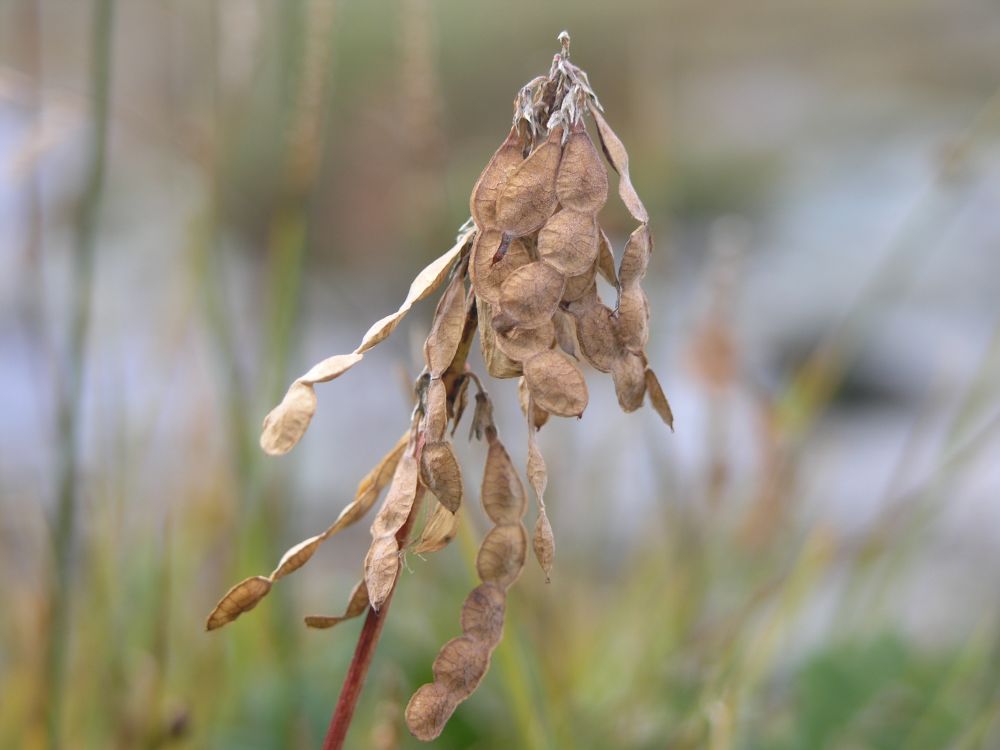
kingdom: Plantae
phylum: Tracheophyta
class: Magnoliopsida
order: Fabales
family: Fabaceae
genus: Hedysarum
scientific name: Hedysarum consanguineum
